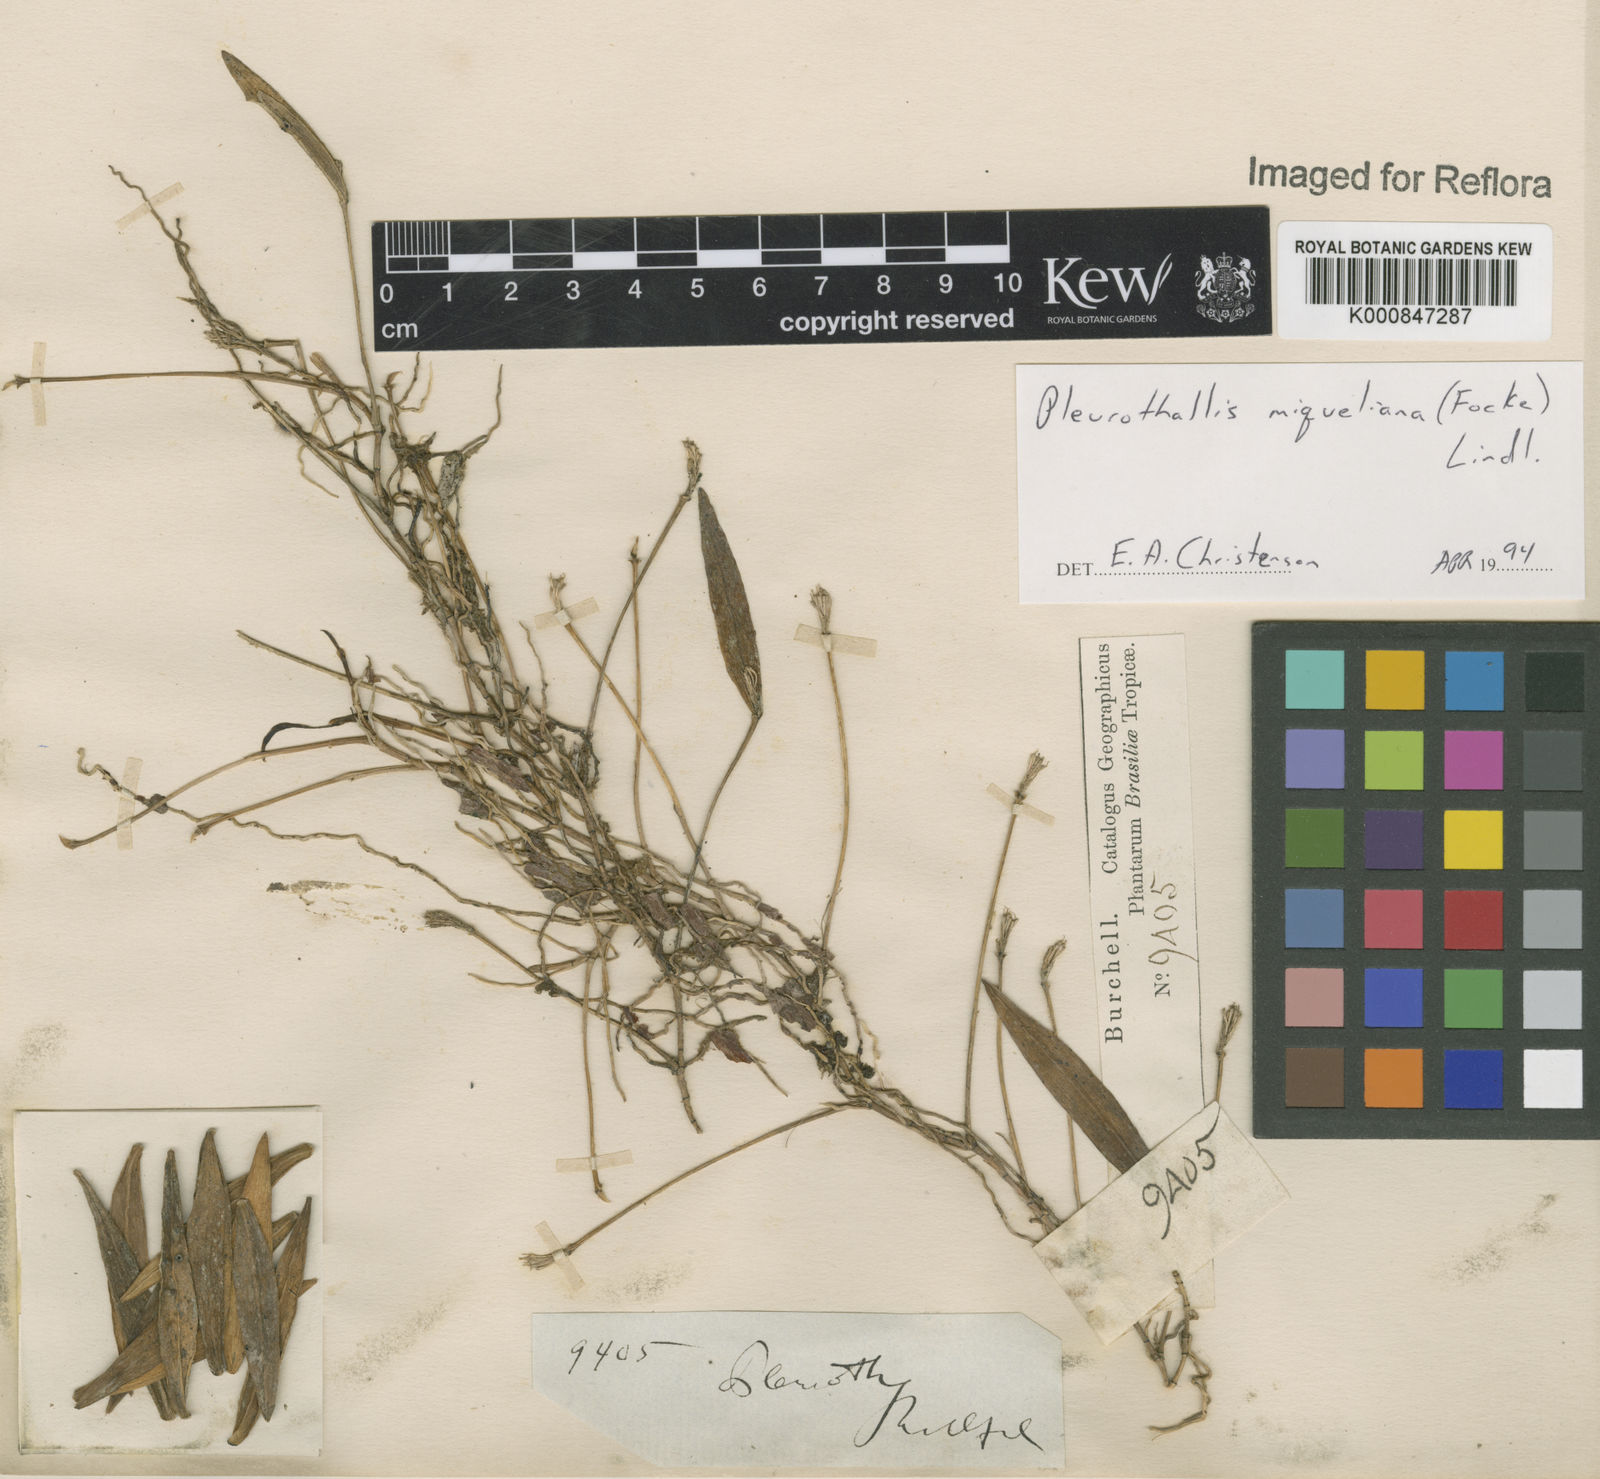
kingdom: Plantae
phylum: Tracheophyta
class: Liliopsida
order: Asparagales
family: Orchidaceae
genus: Acianthera
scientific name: Acianthera miqueliana
